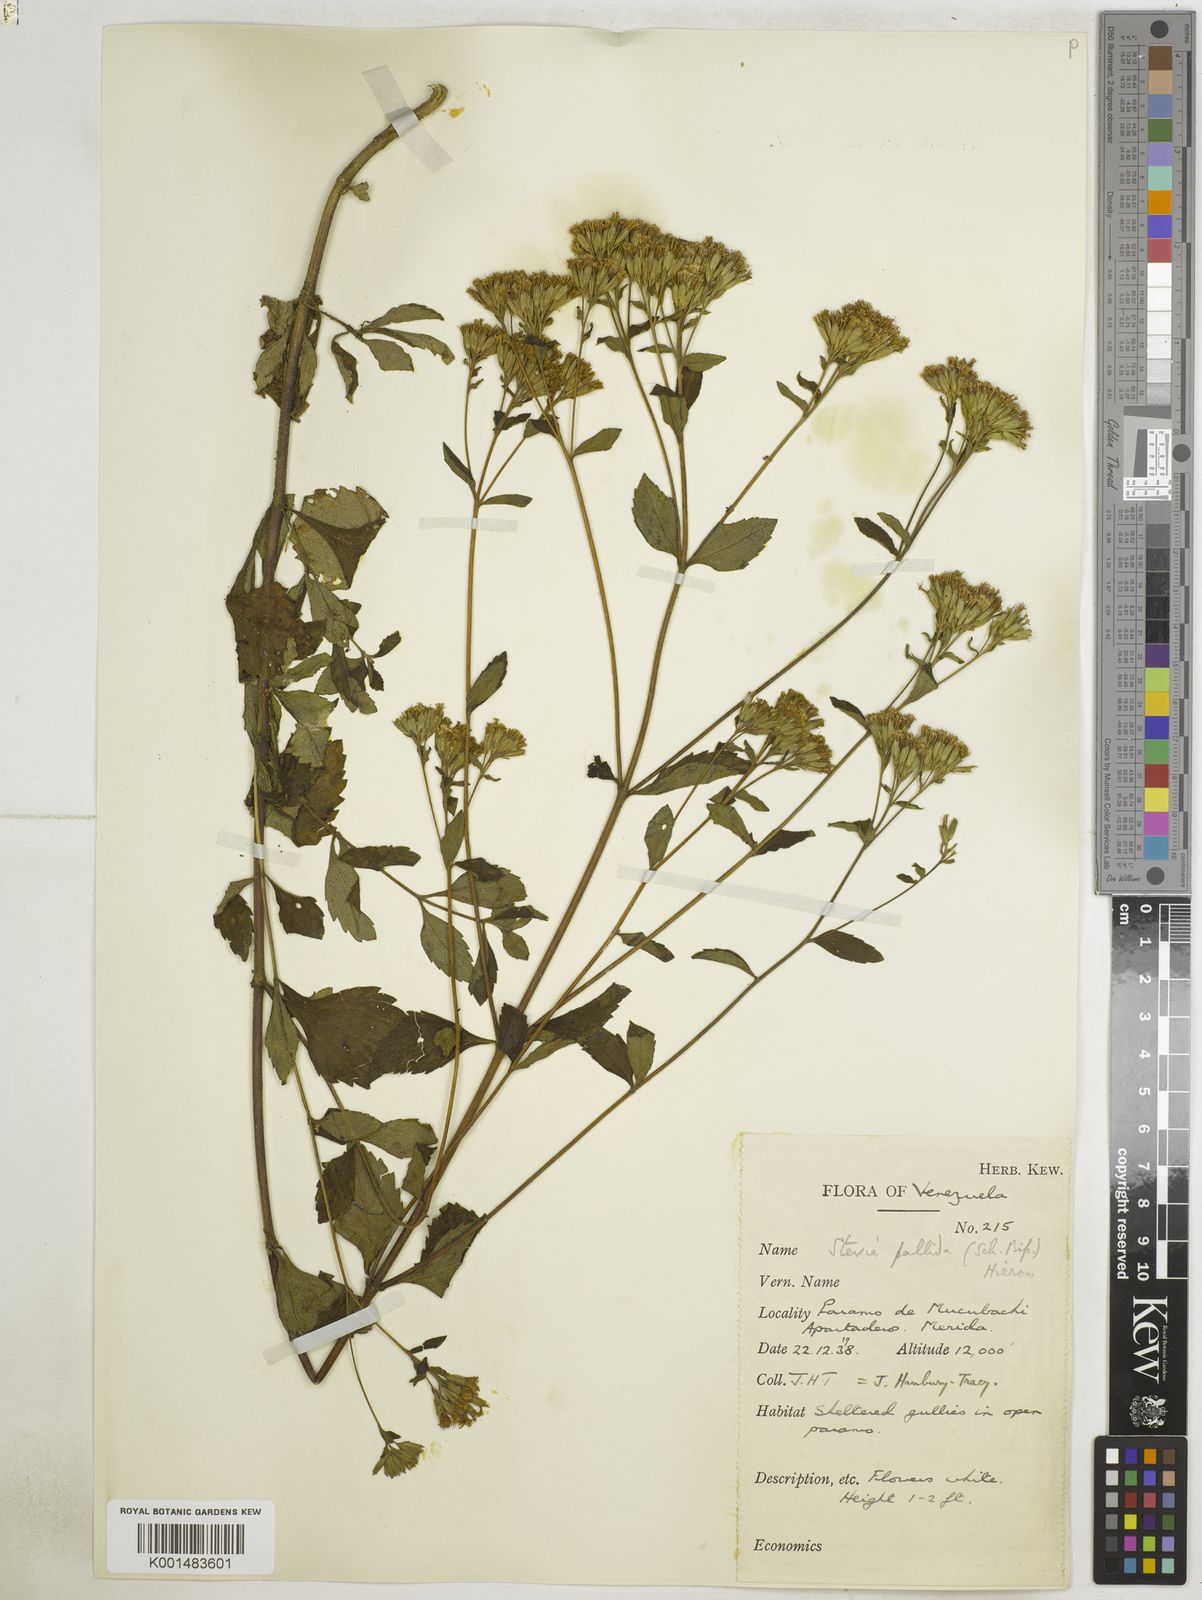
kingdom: Plantae
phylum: Tracheophyta
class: Magnoliopsida
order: Asterales
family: Asteraceae
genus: Stevia
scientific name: Stevia pallida
